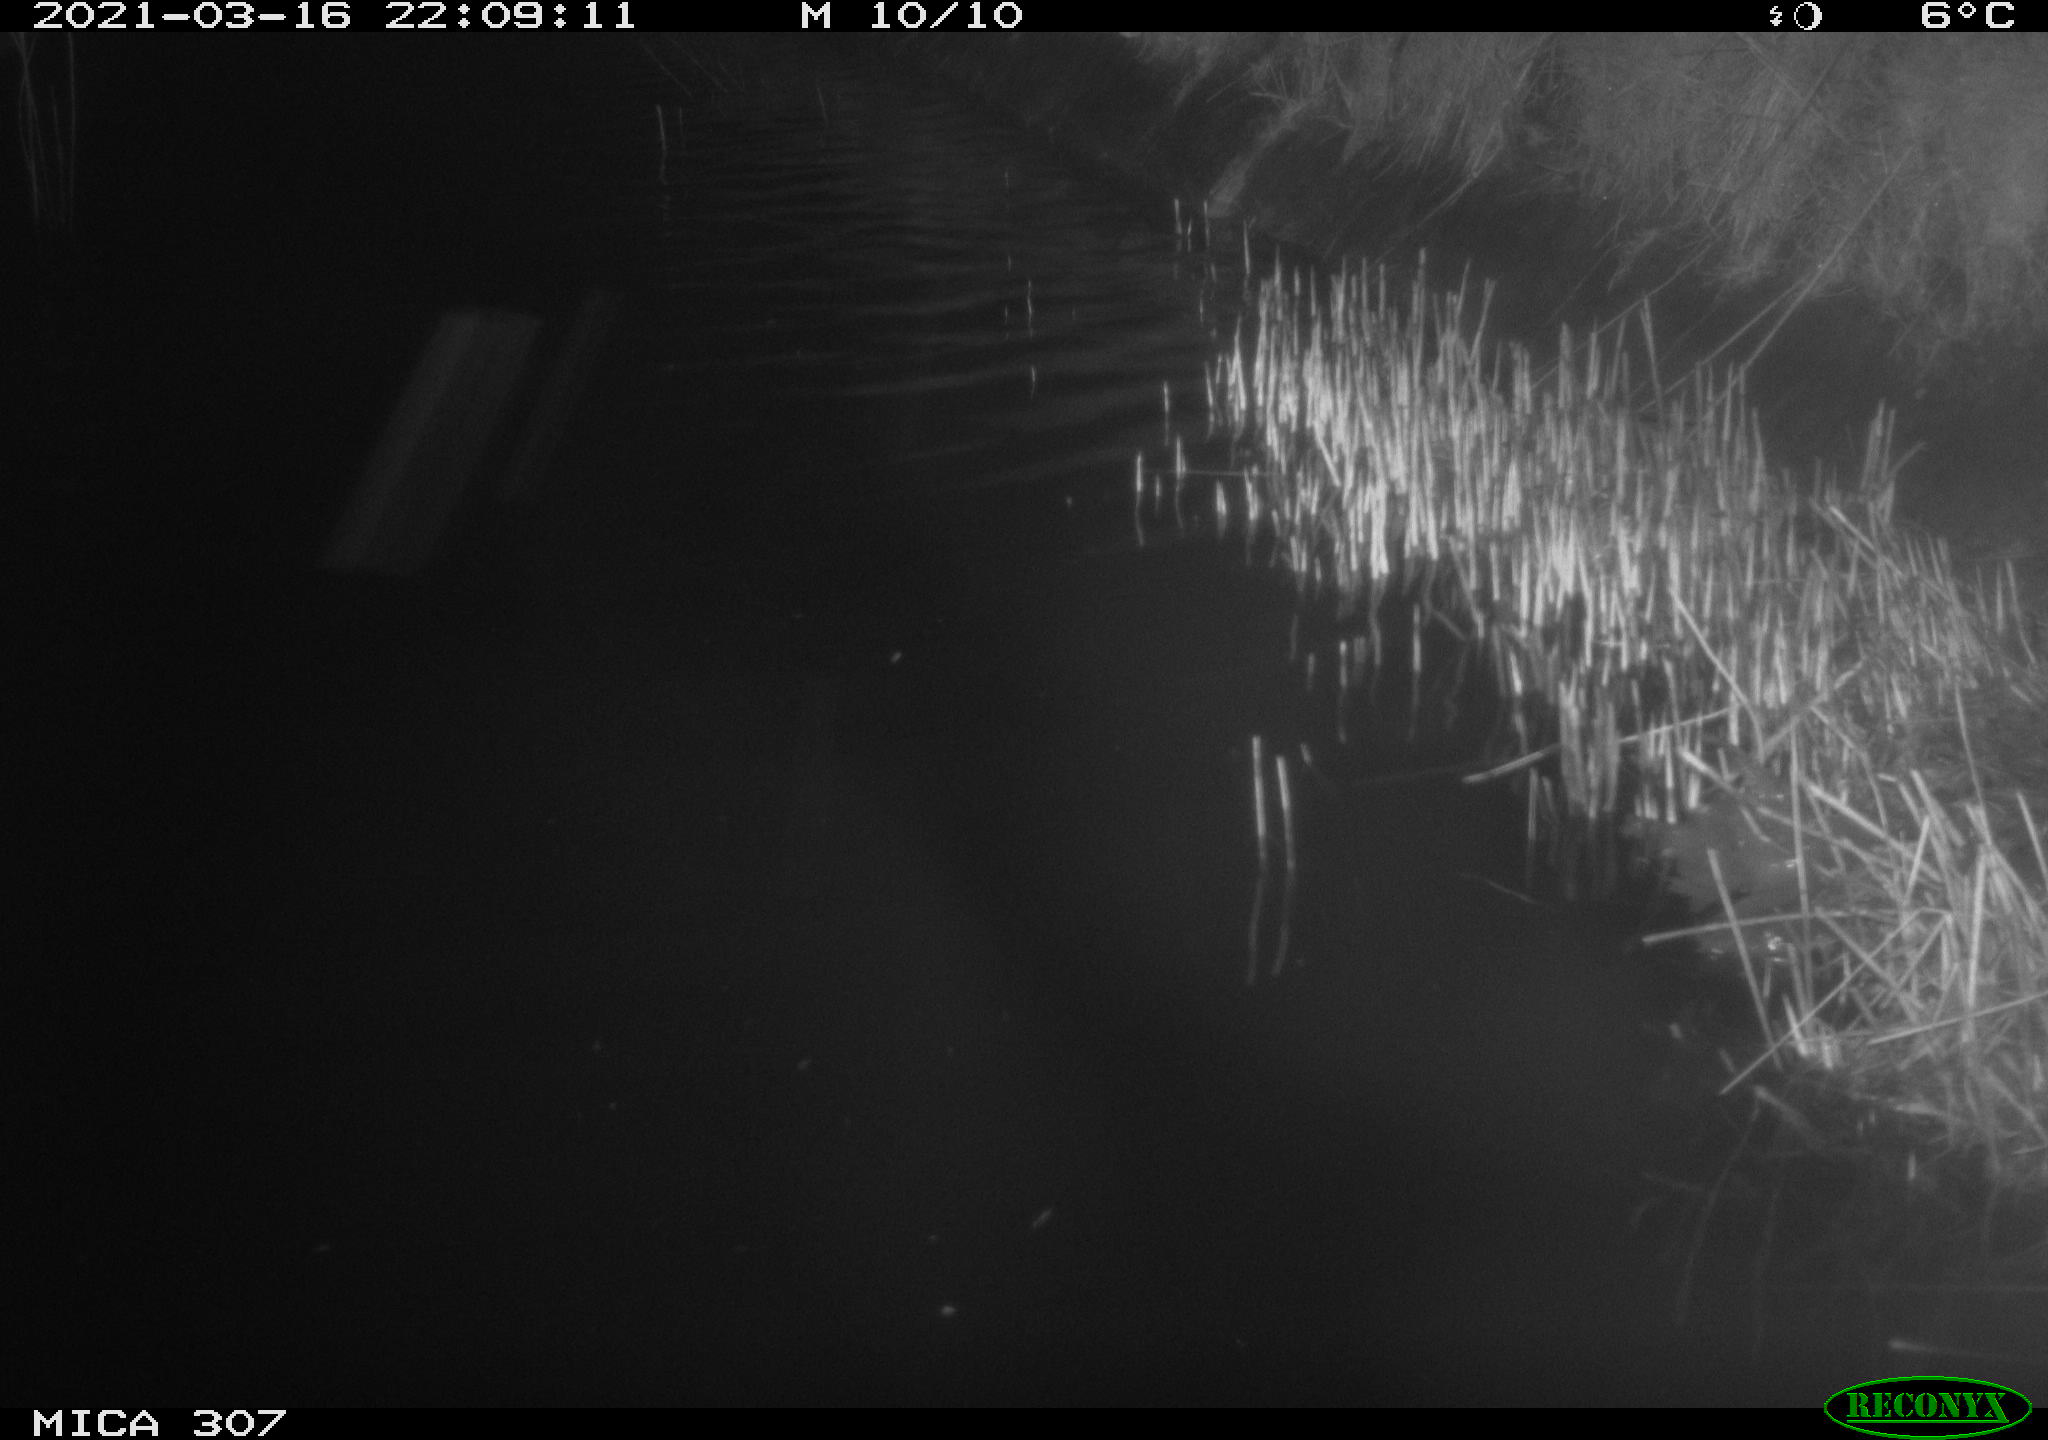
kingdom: Animalia
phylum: Chordata
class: Mammalia
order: Rodentia
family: Muridae
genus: Rattus
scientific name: Rattus norvegicus
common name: Brown rat
